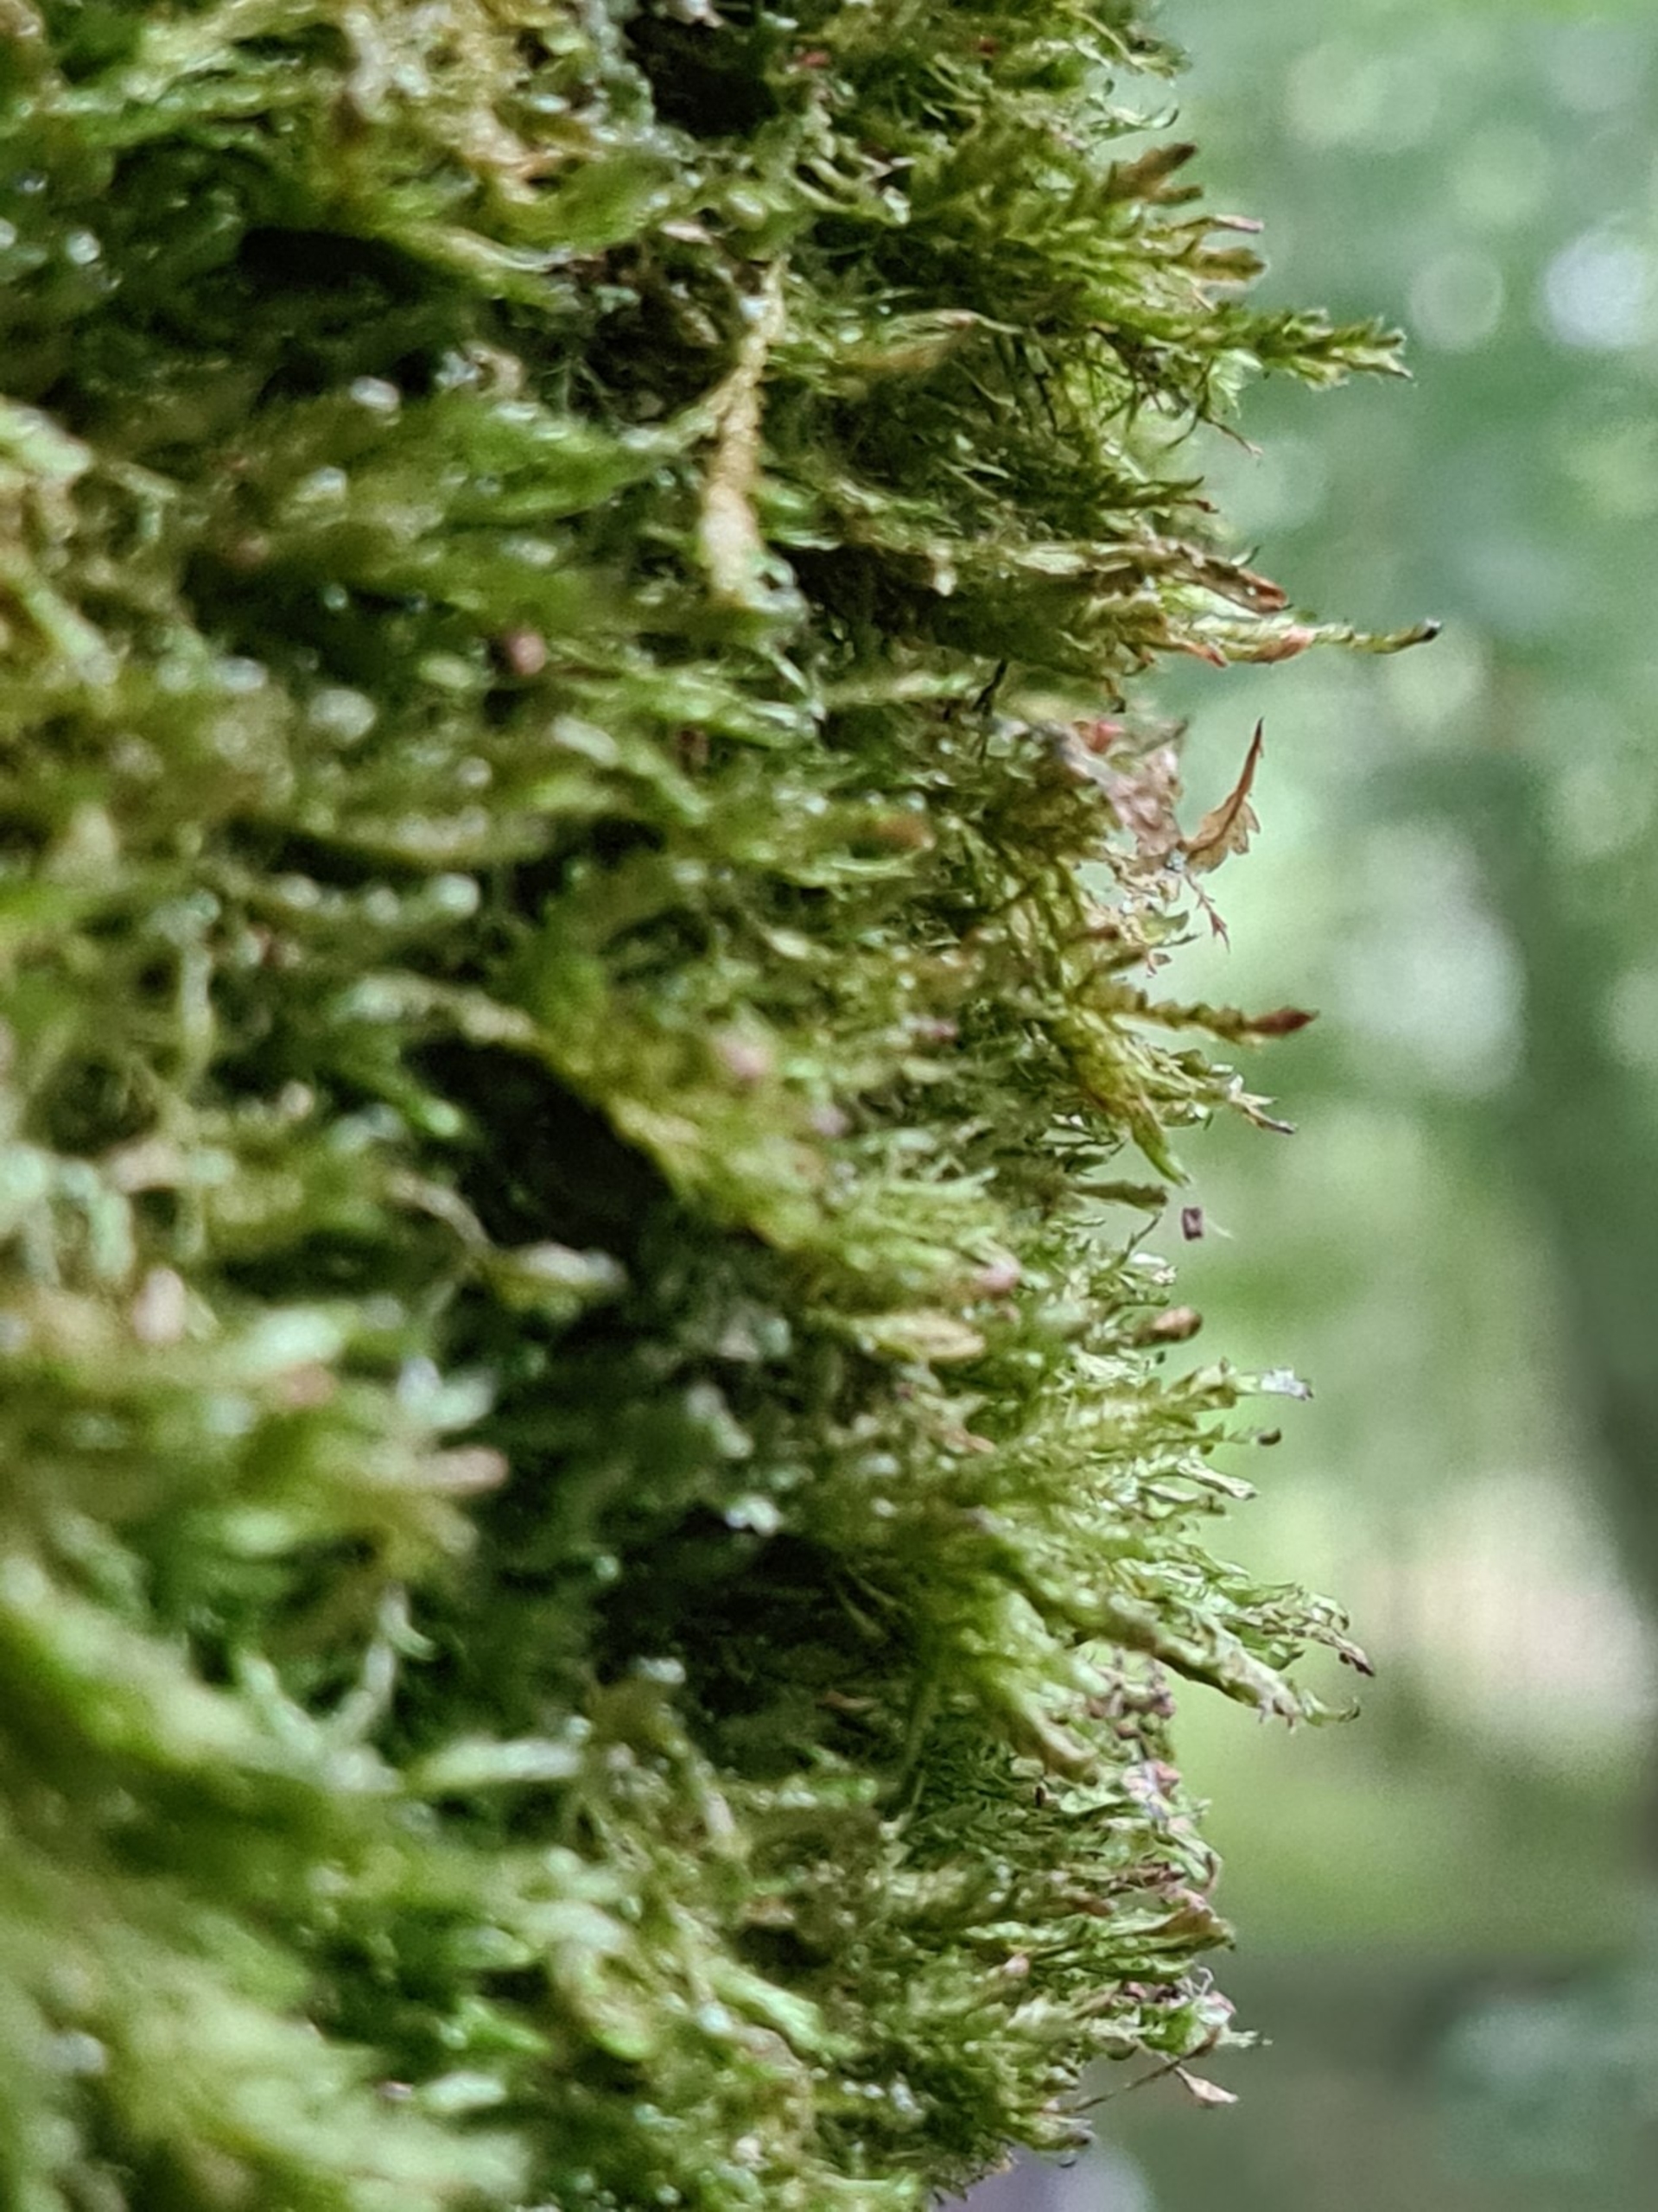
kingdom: Plantae
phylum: Bryophyta
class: Bryopsida
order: Hypnales
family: Neckeraceae
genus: Alleniella
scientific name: Alleniella complanata
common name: Almindelig fladmos
